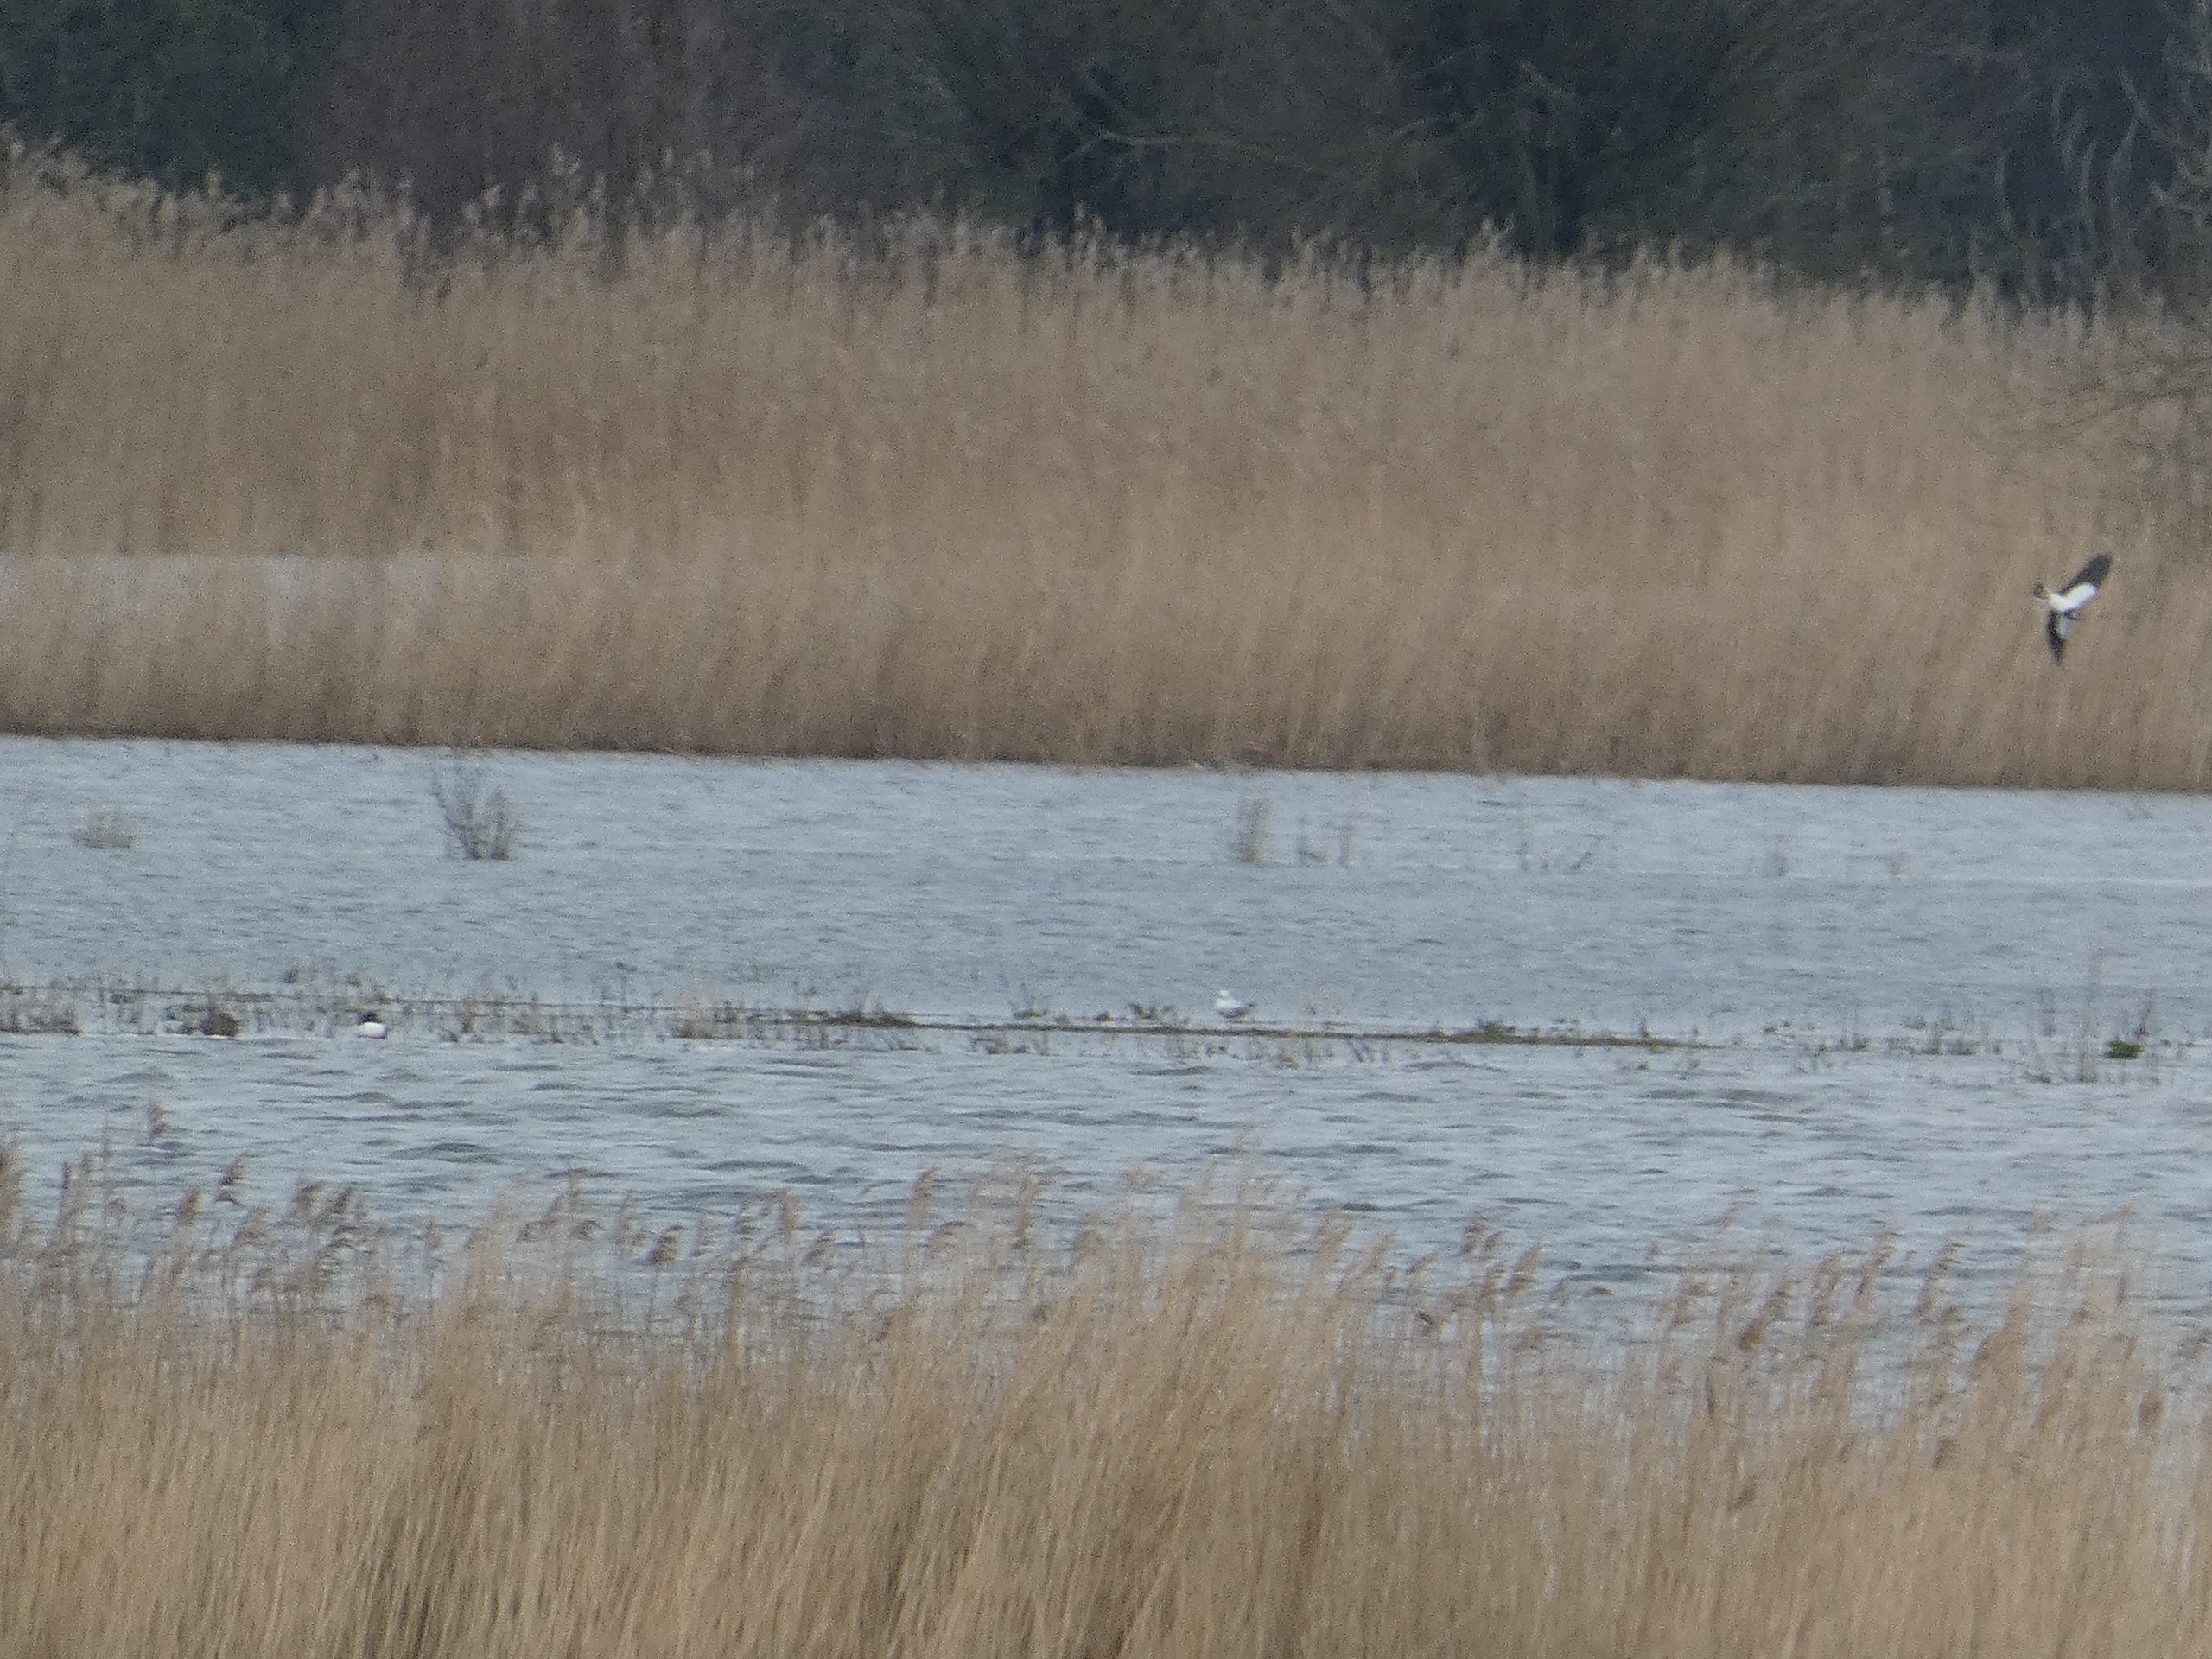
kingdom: Animalia
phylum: Chordata
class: Aves
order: Charadriiformes
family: Charadriidae
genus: Vanellus
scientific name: Vanellus vanellus
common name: Vibe
